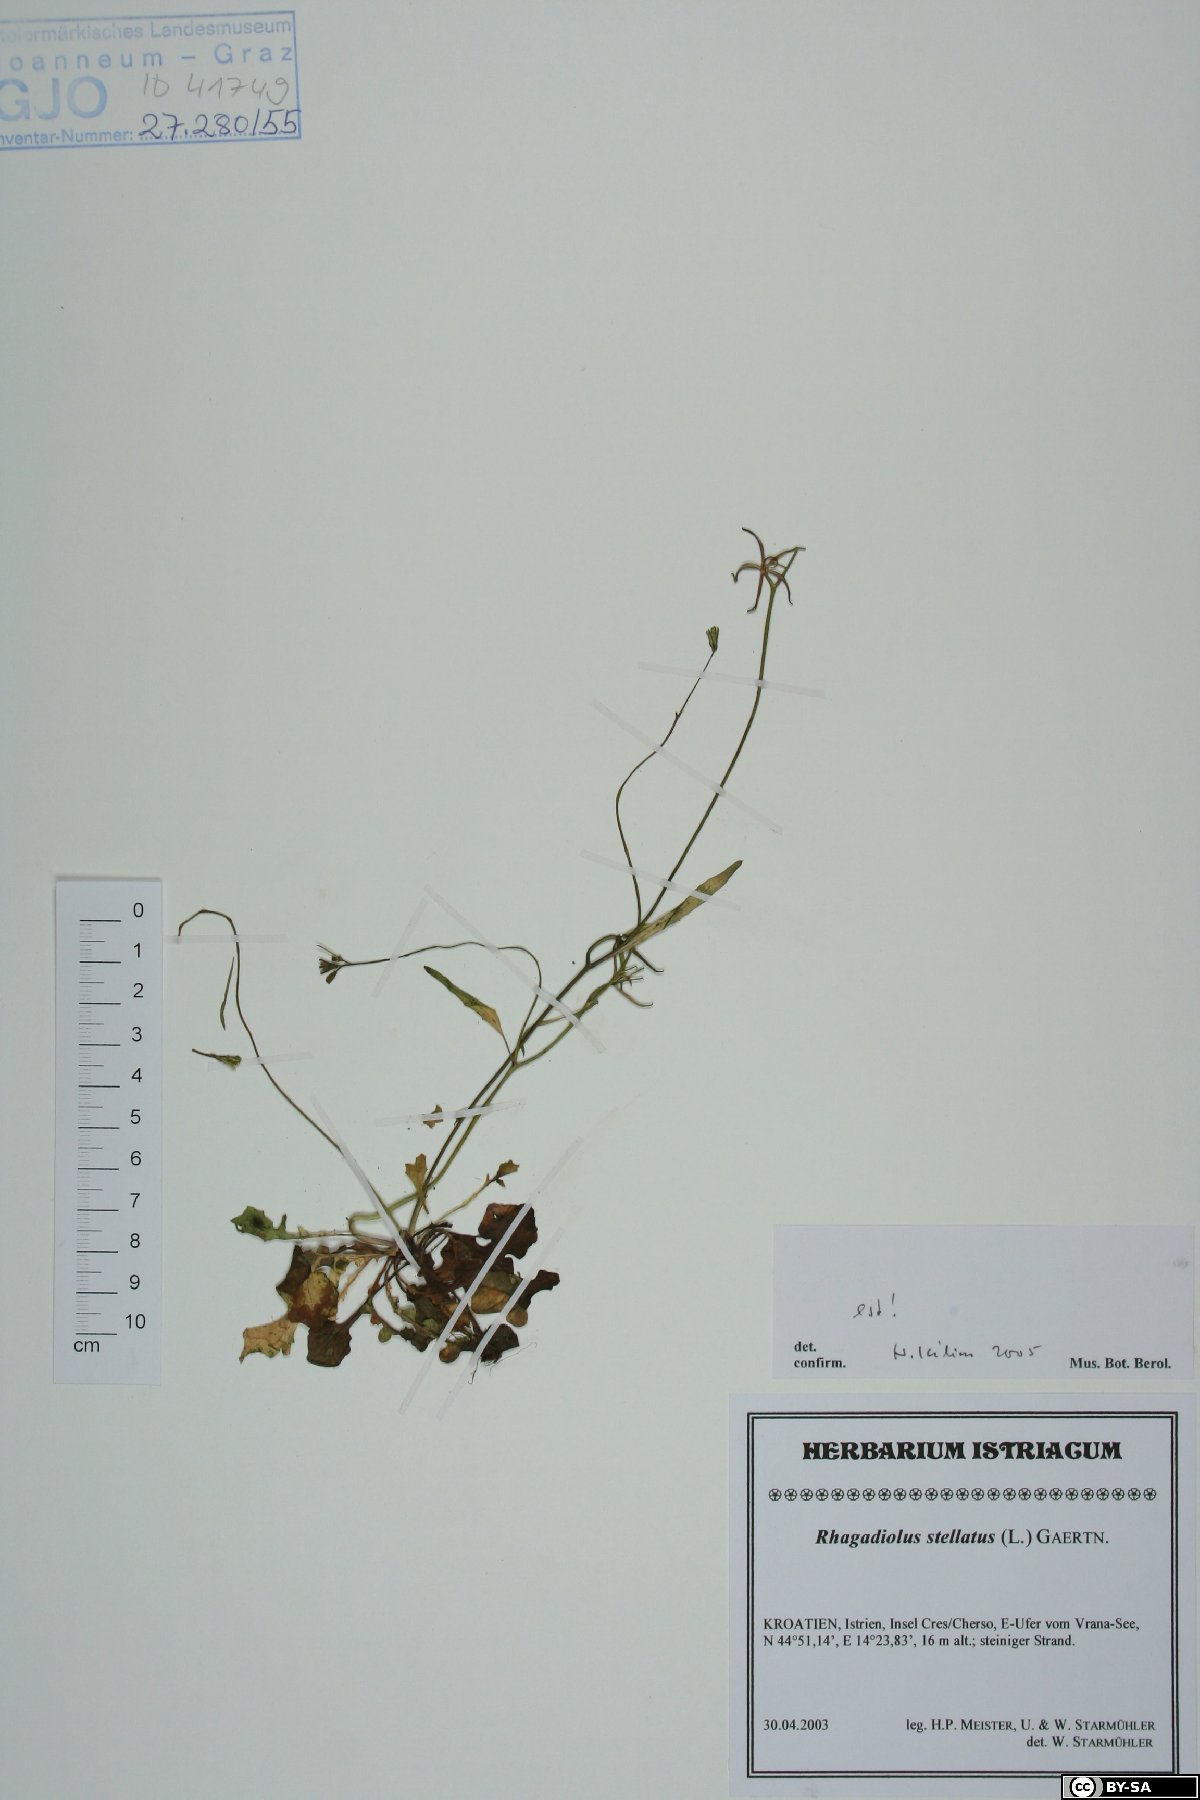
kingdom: Plantae
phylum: Tracheophyta
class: Magnoliopsida
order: Asterales
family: Asteraceae
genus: Rhagadiolus
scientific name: Rhagadiolus stellatus
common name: Star hawkbit
